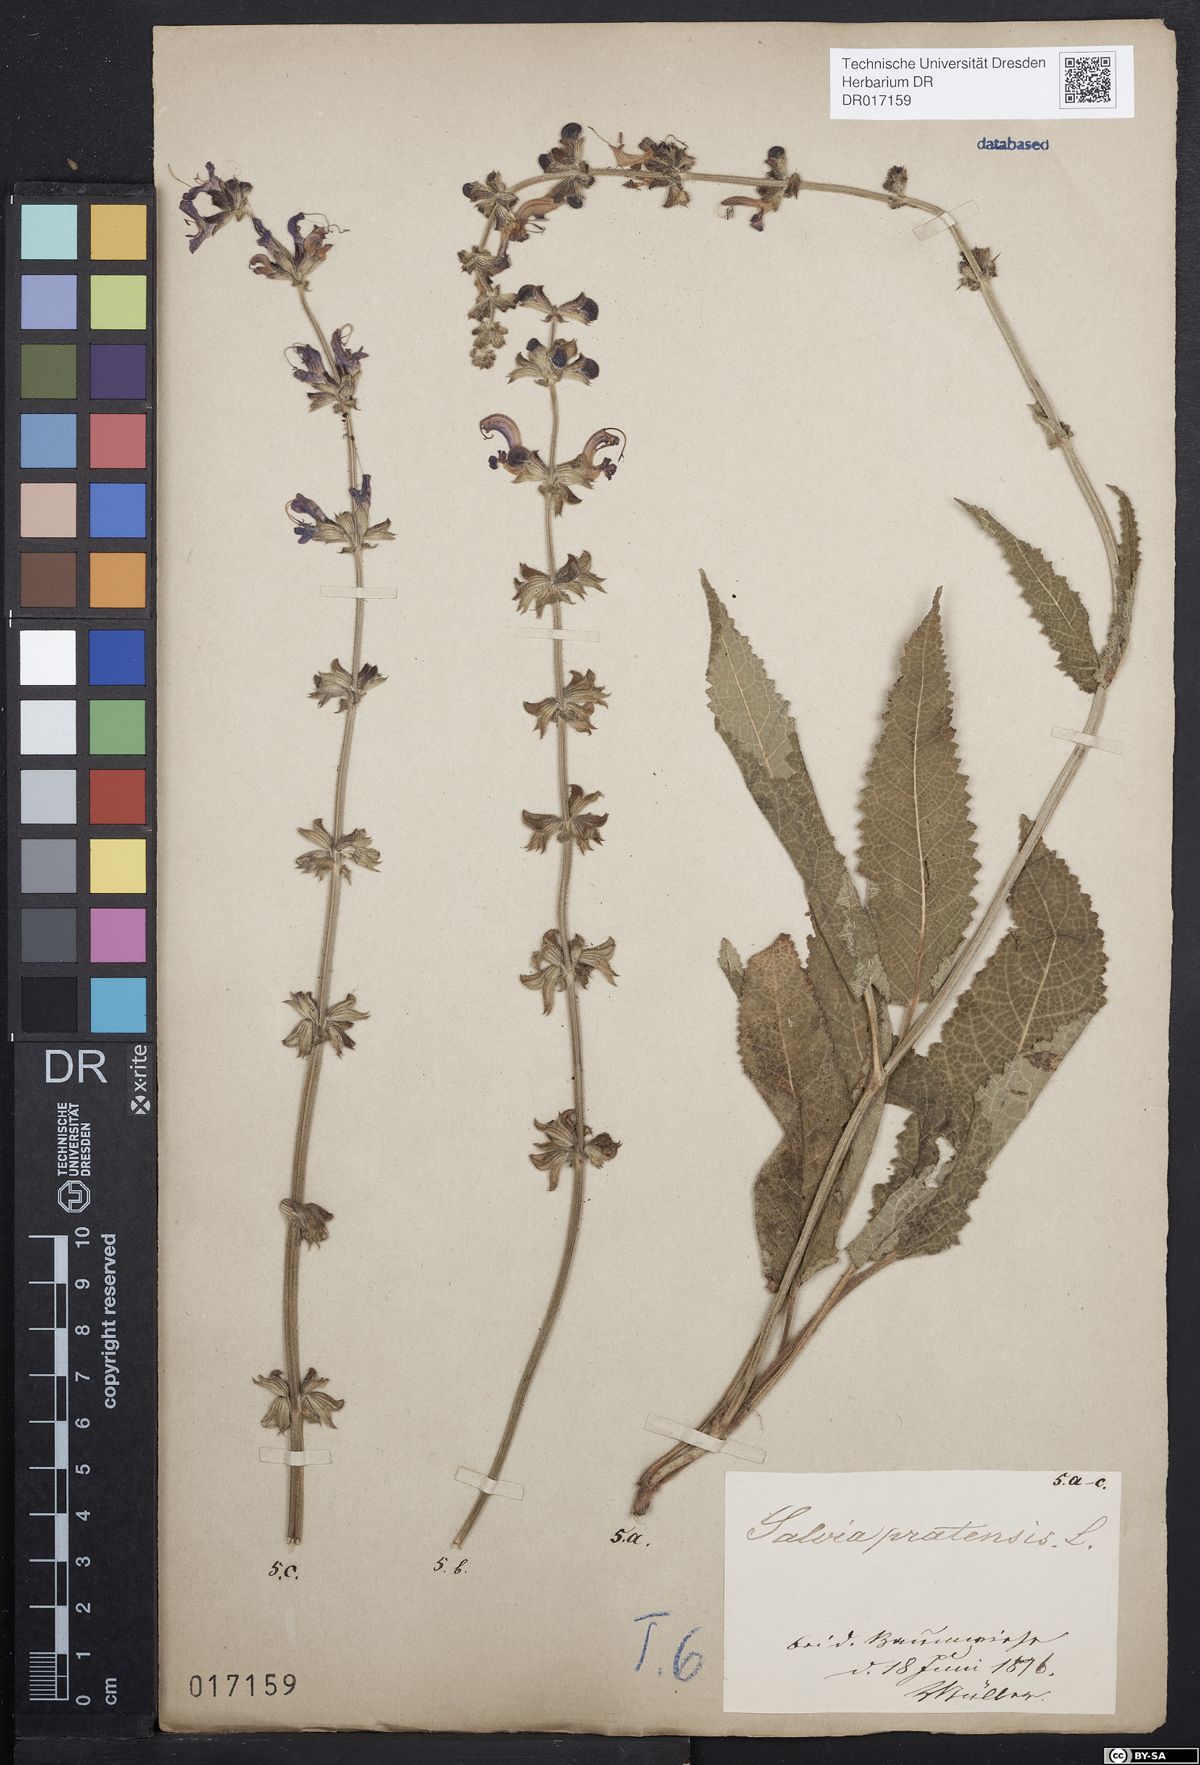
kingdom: Plantae
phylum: Tracheophyta
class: Magnoliopsida
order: Lamiales
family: Lamiaceae
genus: Salvia
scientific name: Salvia pratensis
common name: Meadow sage
